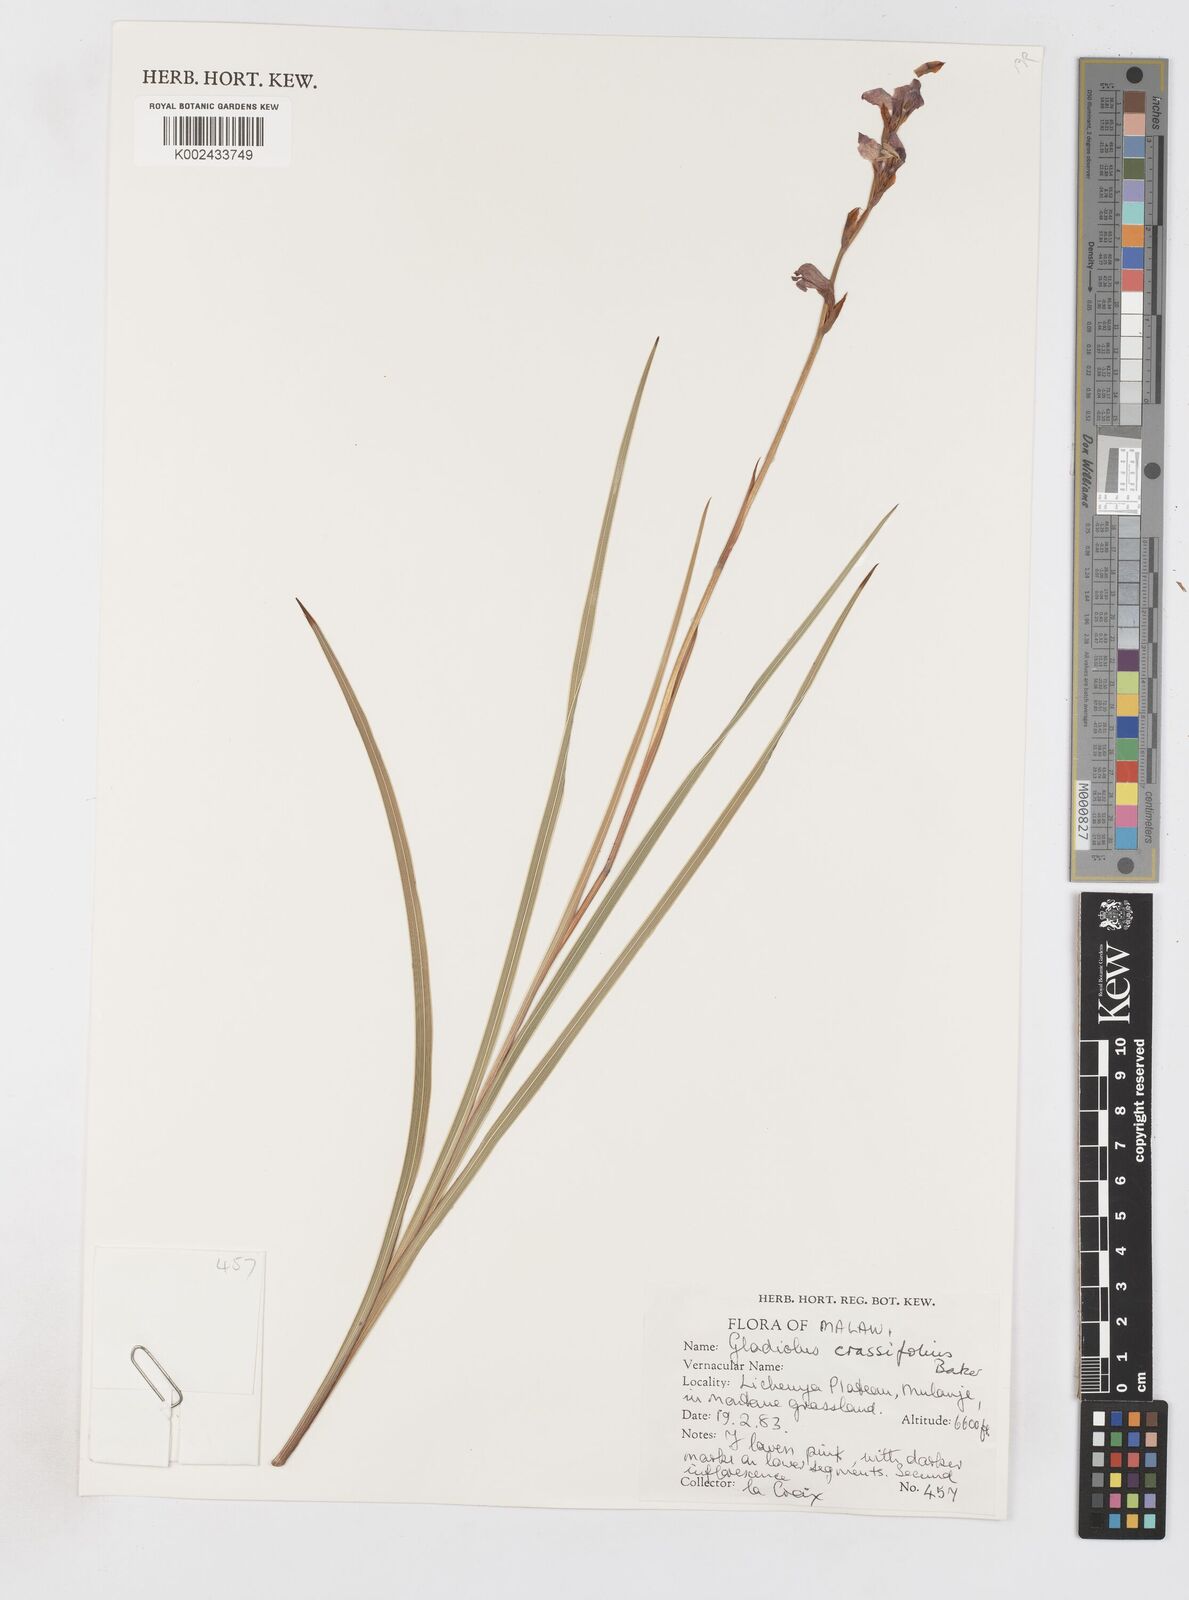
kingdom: Plantae
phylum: Tracheophyta
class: Liliopsida
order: Asparagales
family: Iridaceae
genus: Gladiolus
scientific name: Gladiolus crassifolius
